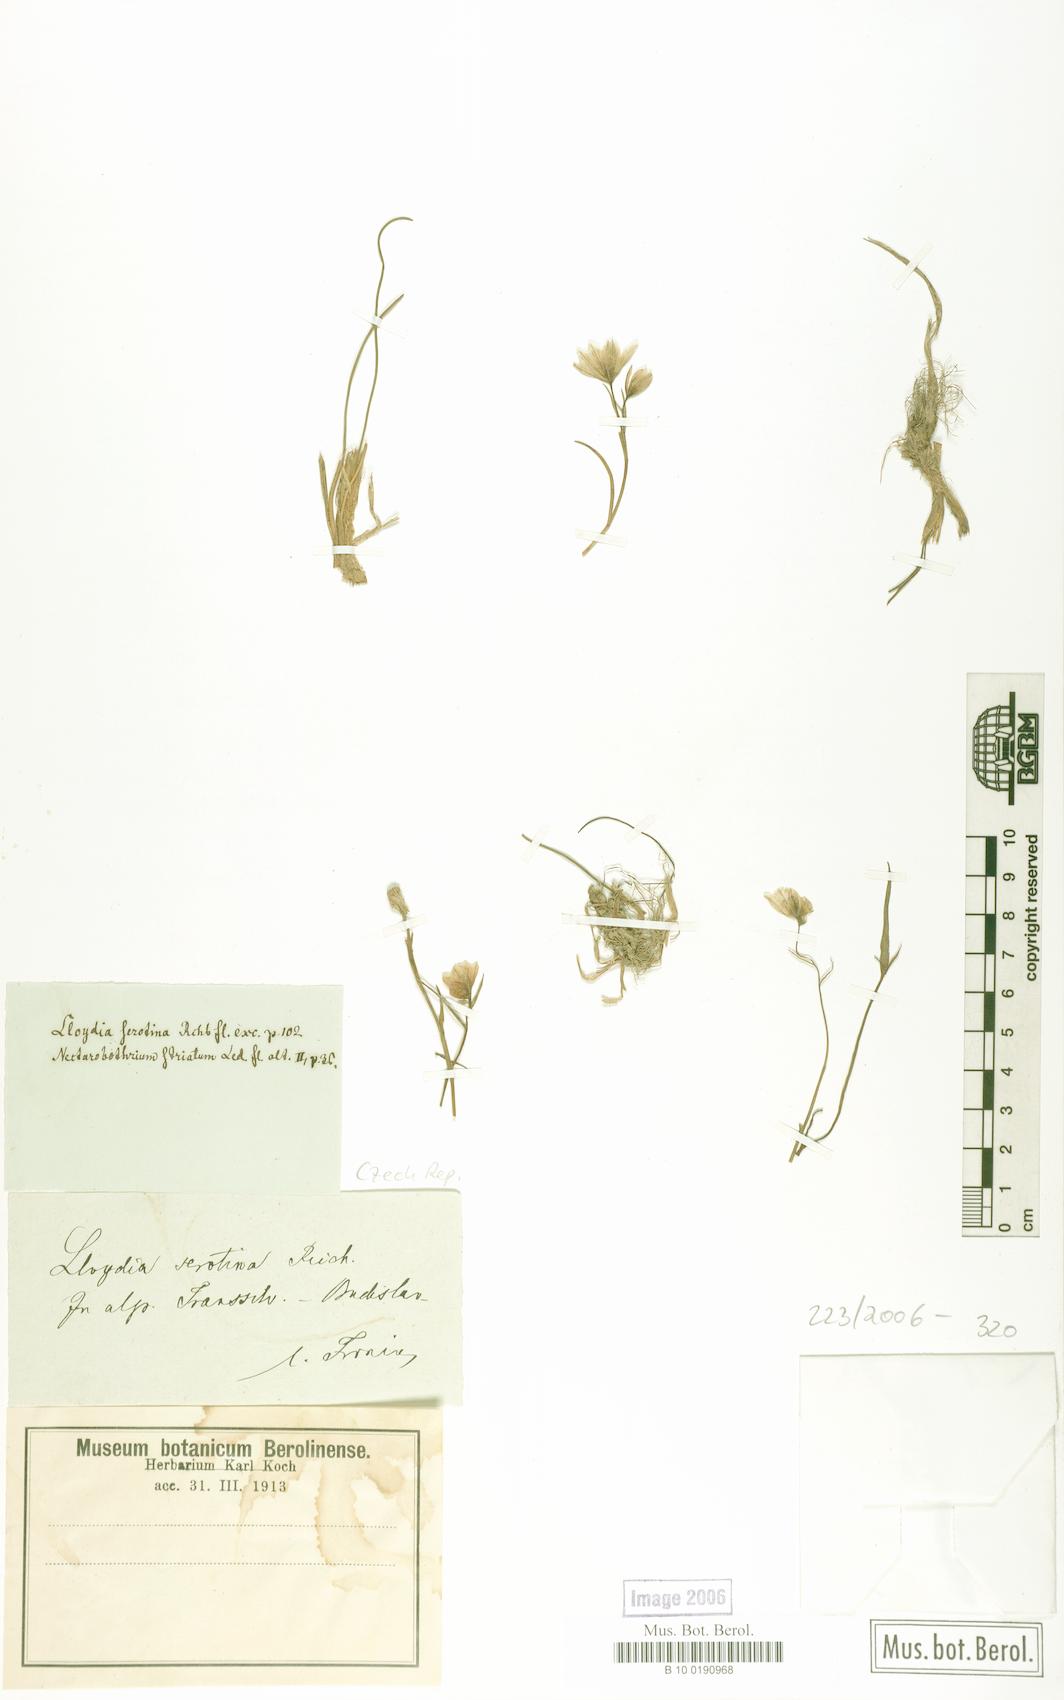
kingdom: Plantae
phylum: Tracheophyta
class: Liliopsida
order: Liliales
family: Liliaceae
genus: Gagea
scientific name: Gagea serotina
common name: Snowdon lily
